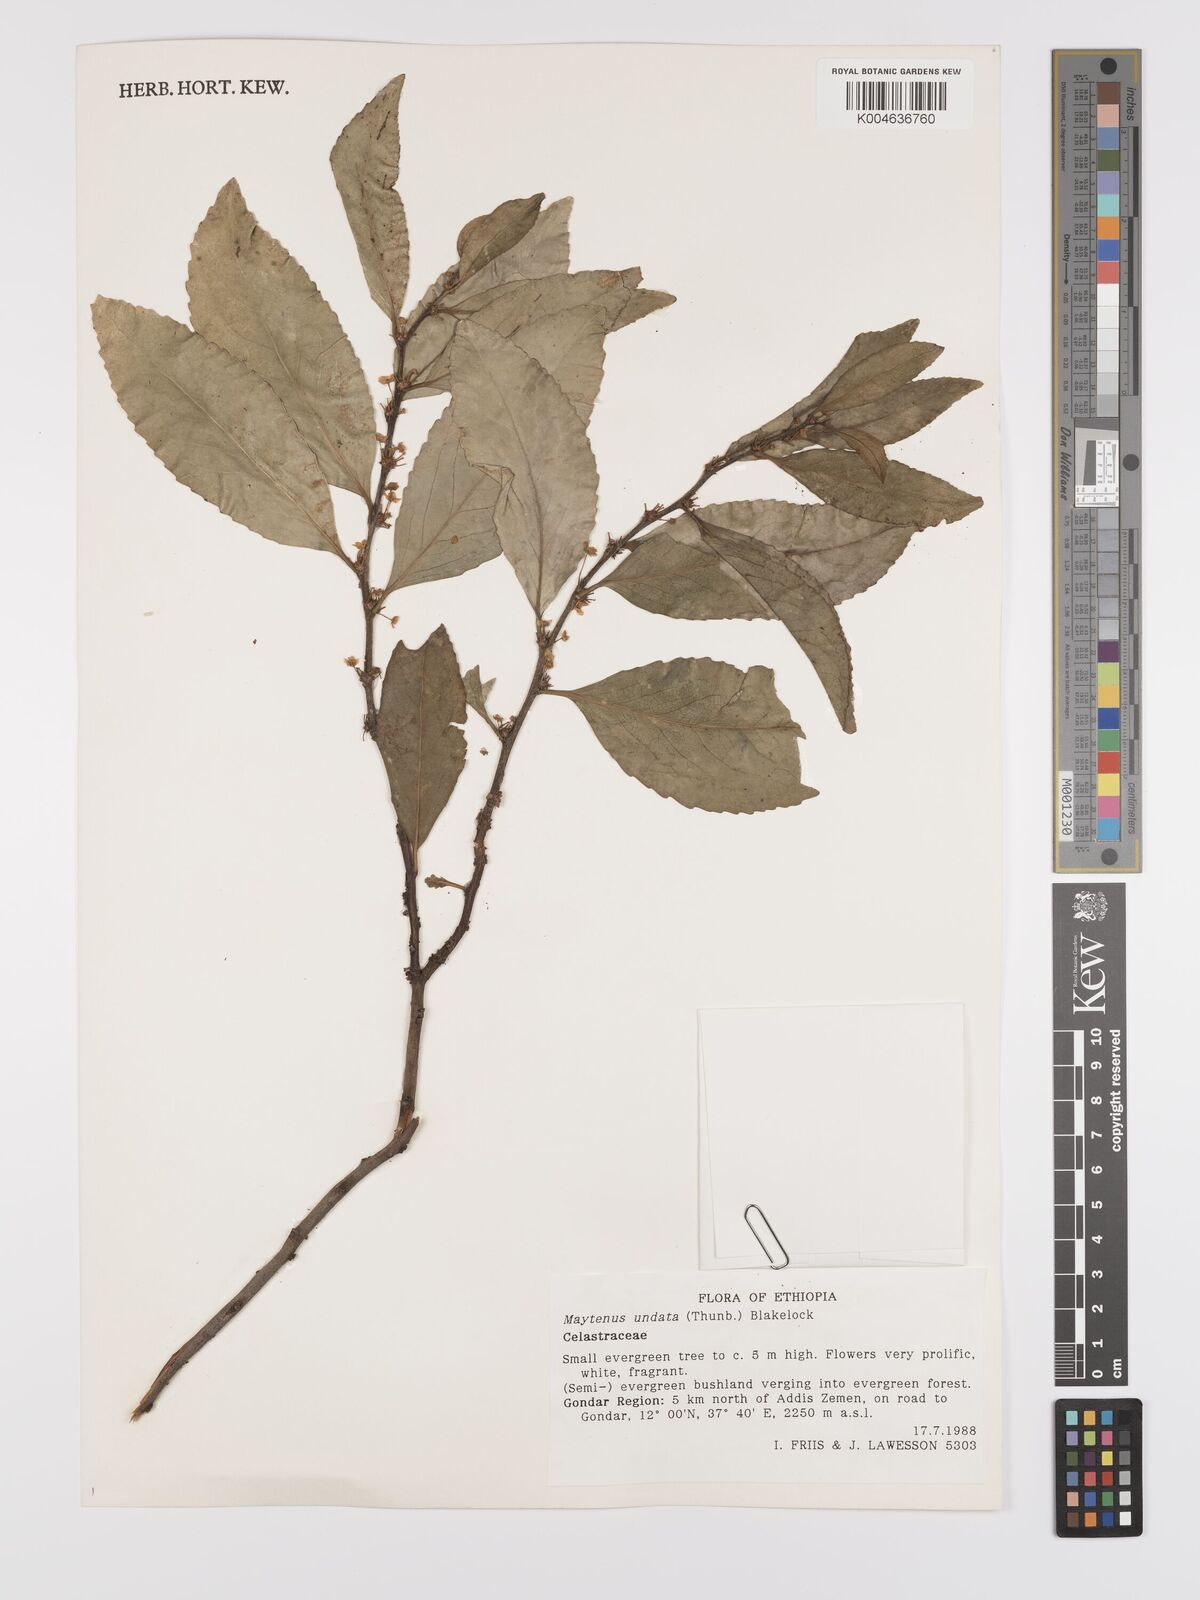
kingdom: Plantae
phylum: Tracheophyta
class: Magnoliopsida
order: Celastrales
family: Celastraceae
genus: Gymnosporia
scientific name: Gymnosporia undata
